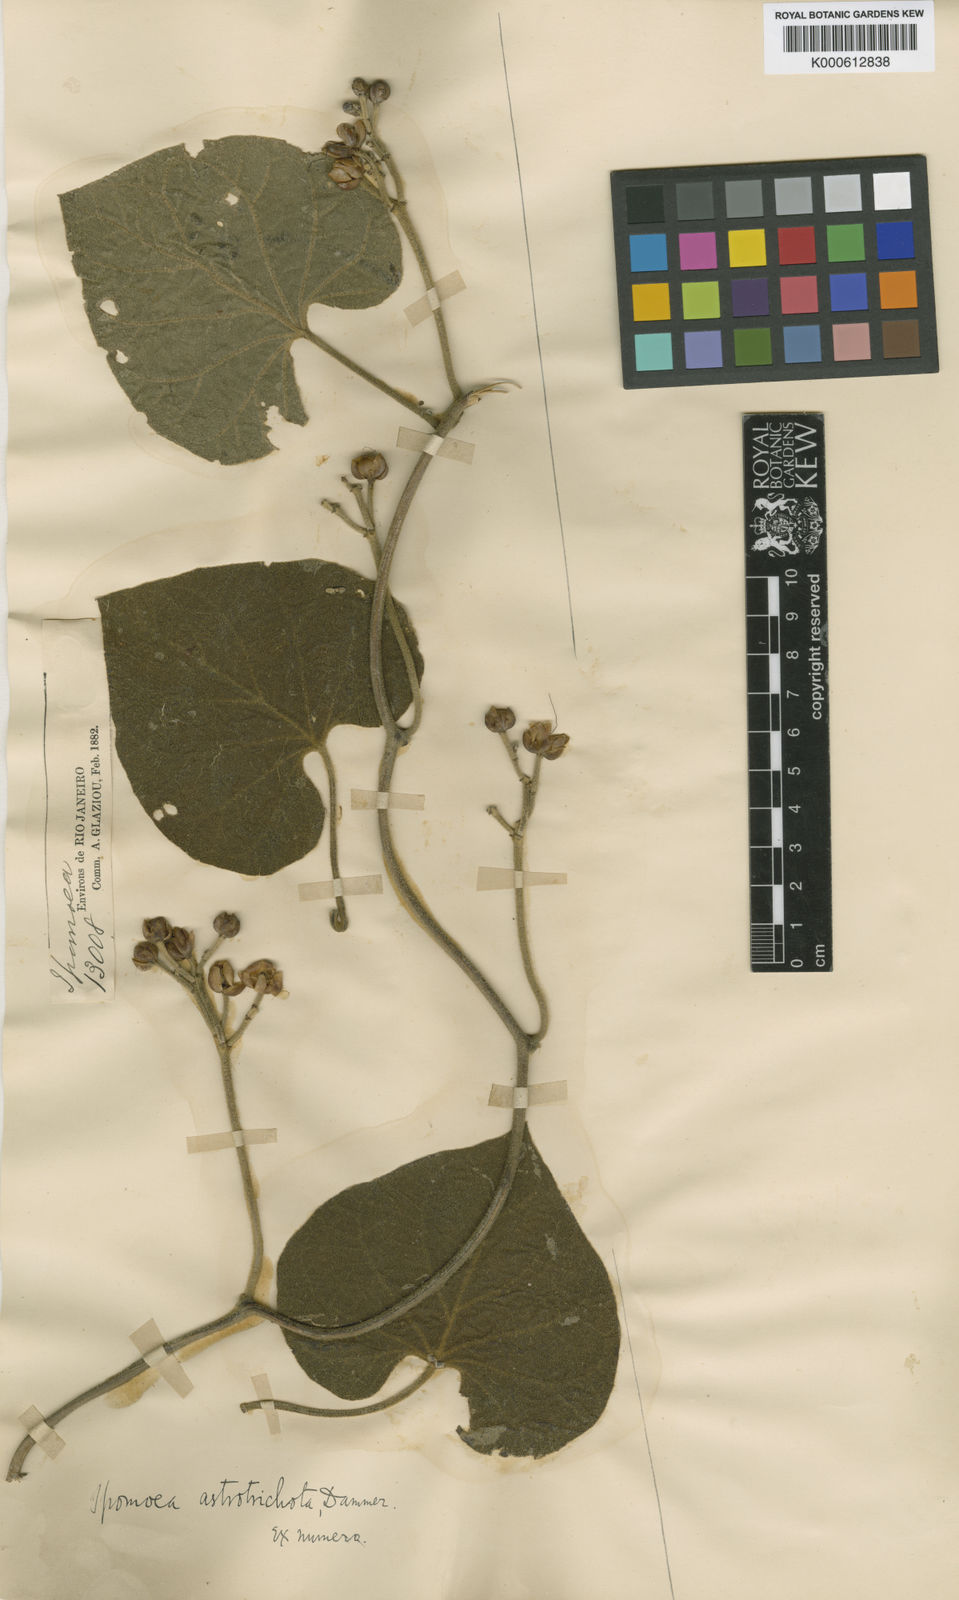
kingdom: Plantae
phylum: Tracheophyta
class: Magnoliopsida
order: Solanales
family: Convolvulaceae
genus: Ipomoea
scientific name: Ipomoea bonariensis
